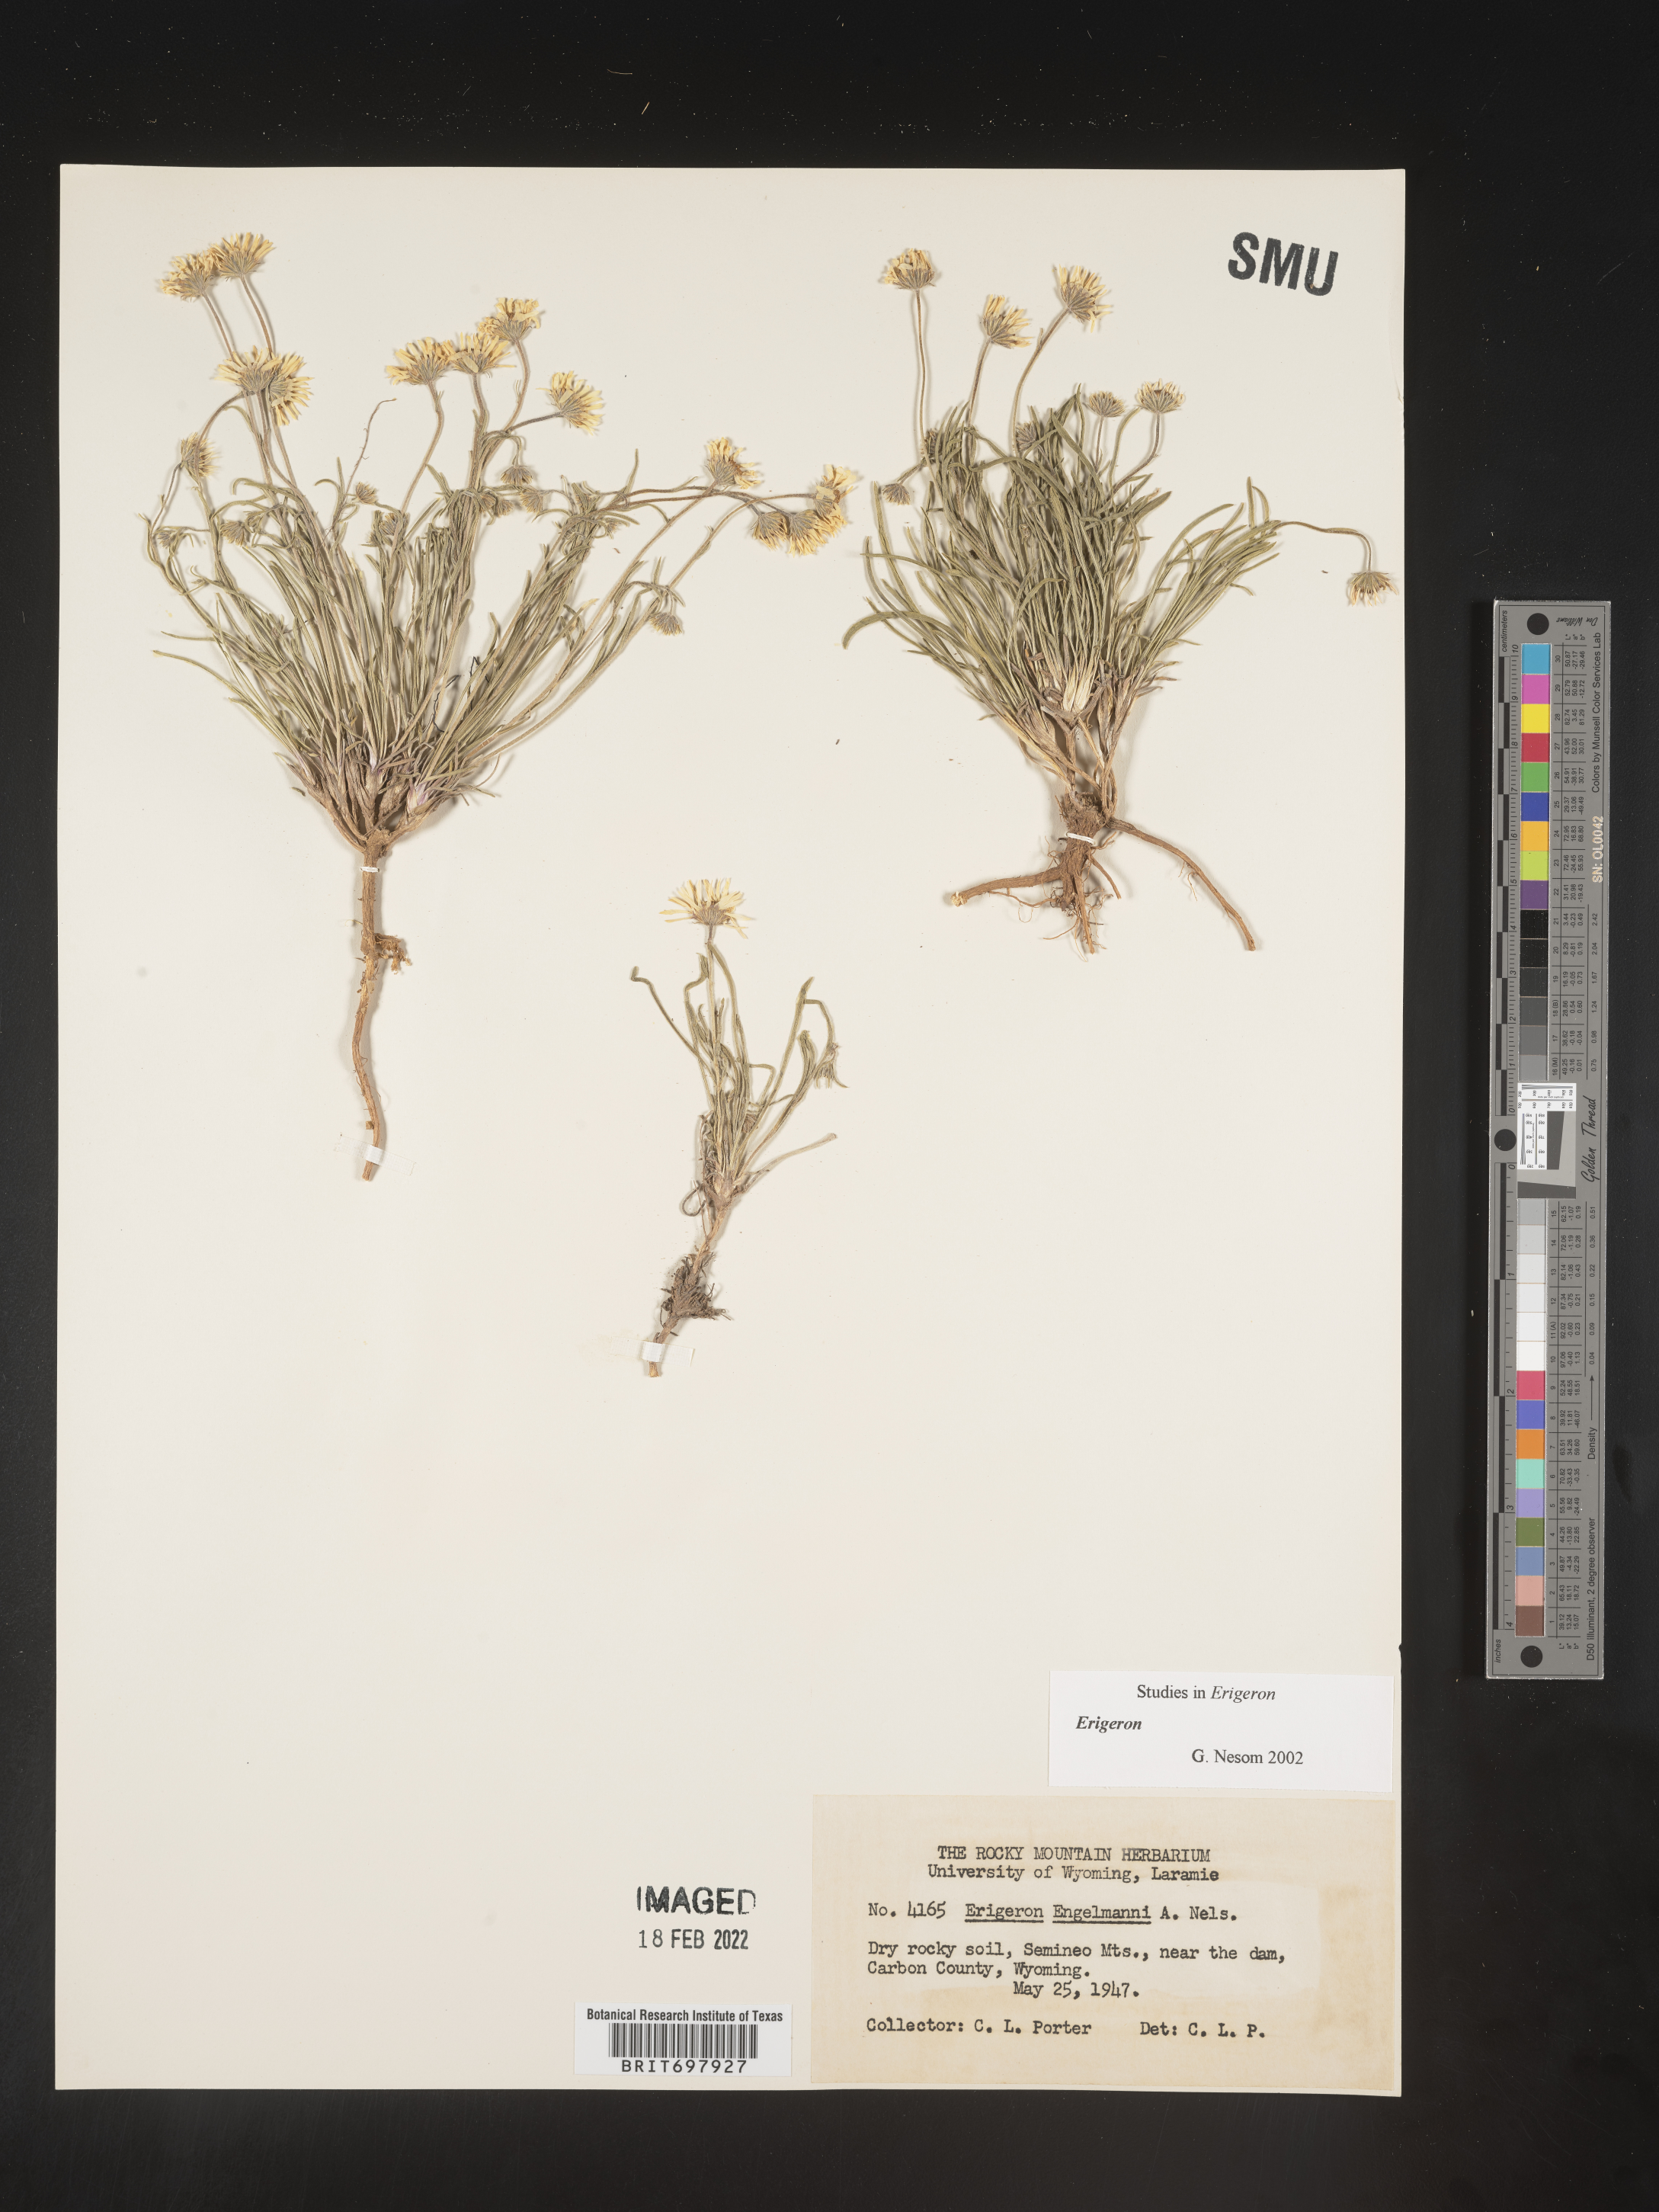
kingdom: Plantae
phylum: Tracheophyta
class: Magnoliopsida
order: Asterales
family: Asteraceae
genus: Erigeron
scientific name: Erigeron nematophyllus
